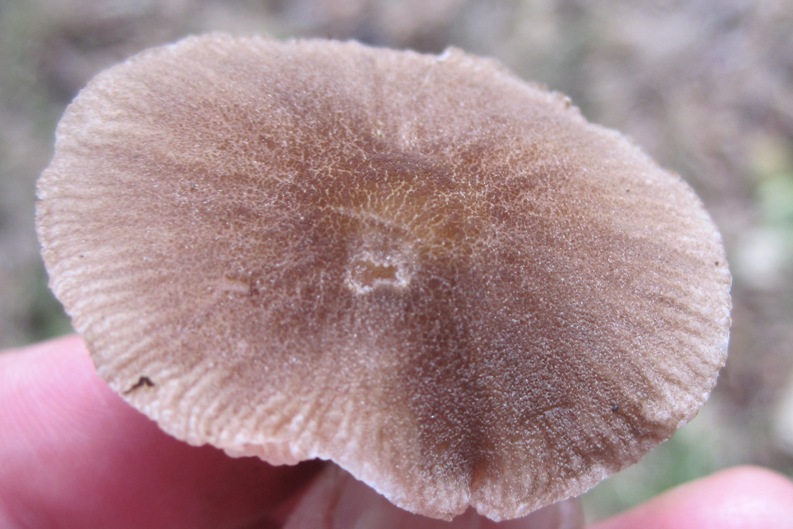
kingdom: Fungi
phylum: Basidiomycota
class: Agaricomycetes
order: Agaricales
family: Pluteaceae
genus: Pluteus
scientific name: Pluteus
